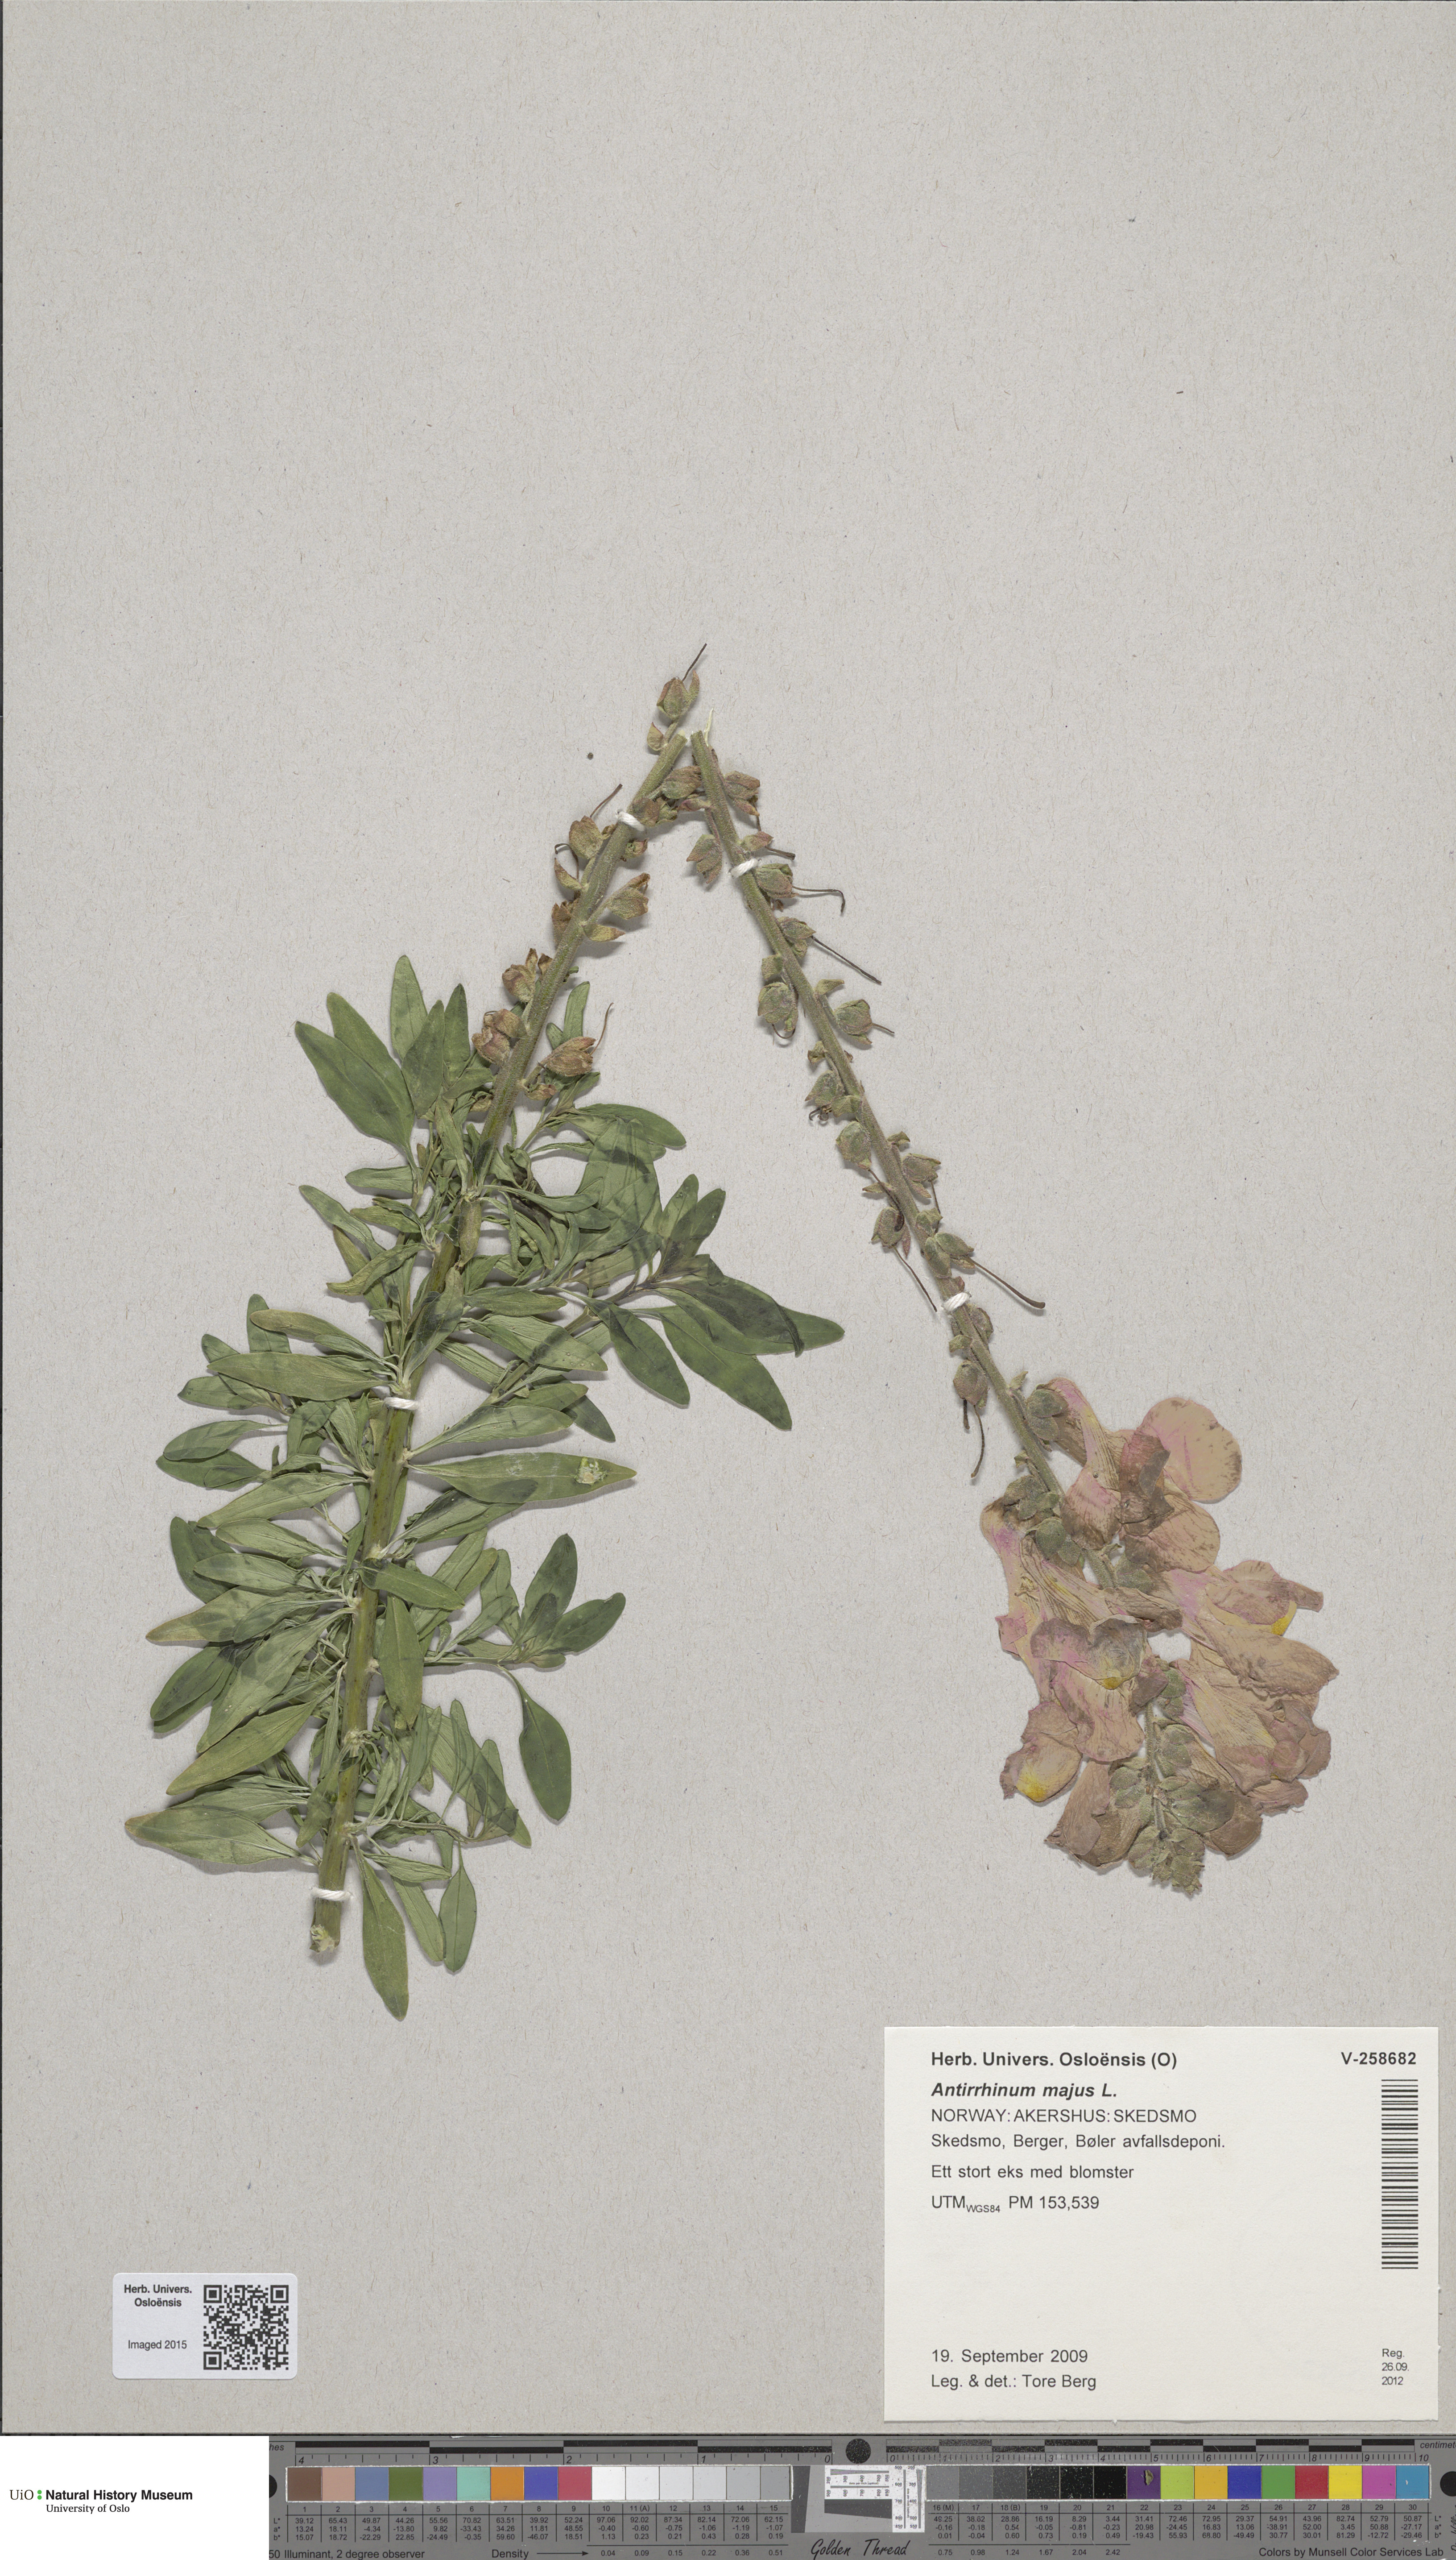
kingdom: Plantae
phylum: Tracheophyta
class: Magnoliopsida
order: Lamiales
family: Plantaginaceae
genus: Antirrhinum
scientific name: Antirrhinum majus
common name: Snapdragon
